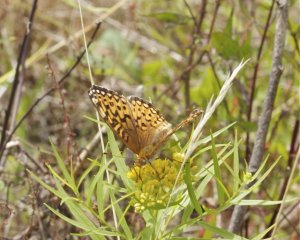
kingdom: Animalia
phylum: Arthropoda
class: Insecta
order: Lepidoptera
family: Nymphalidae
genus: Speyeria
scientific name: Speyeria atlantis
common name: Atlantis Fritillary
